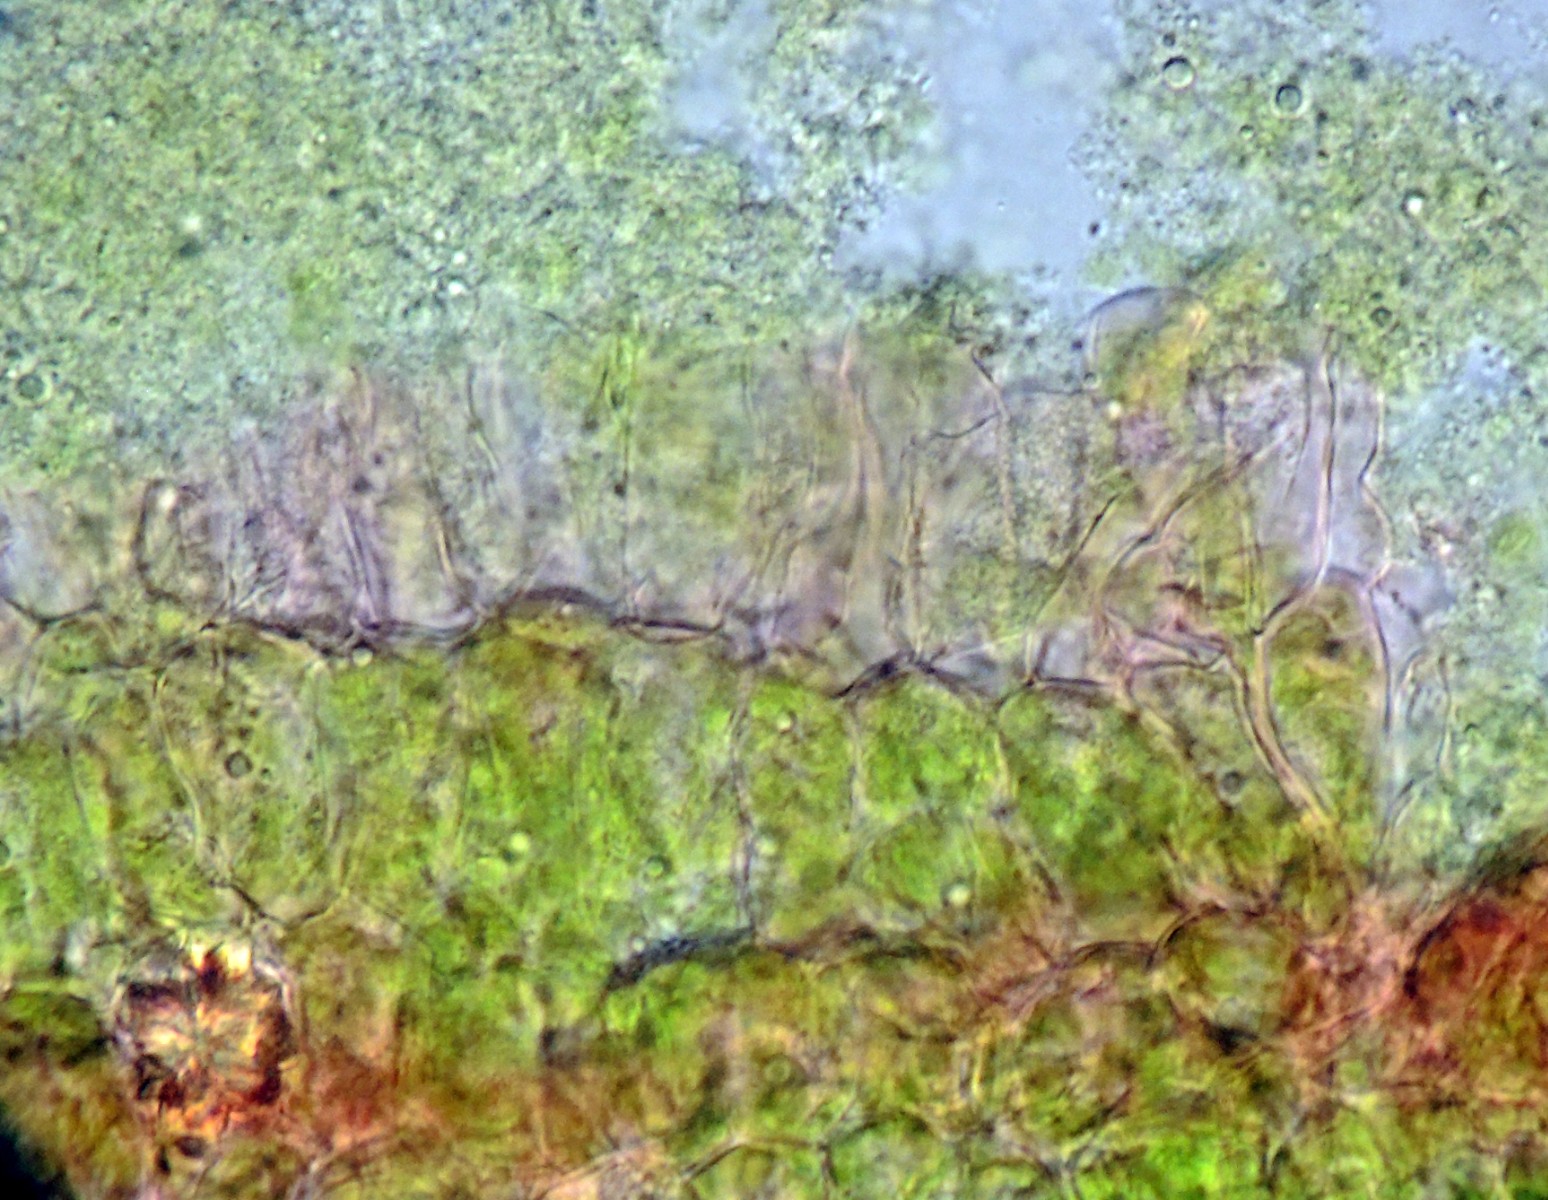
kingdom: Fungi
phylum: Ascomycota
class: Taphrinomycetes
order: Taphrinales
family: Taphrinaceae
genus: Taphrina
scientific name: Taphrina tosquinetii
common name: Alder wrinkle
